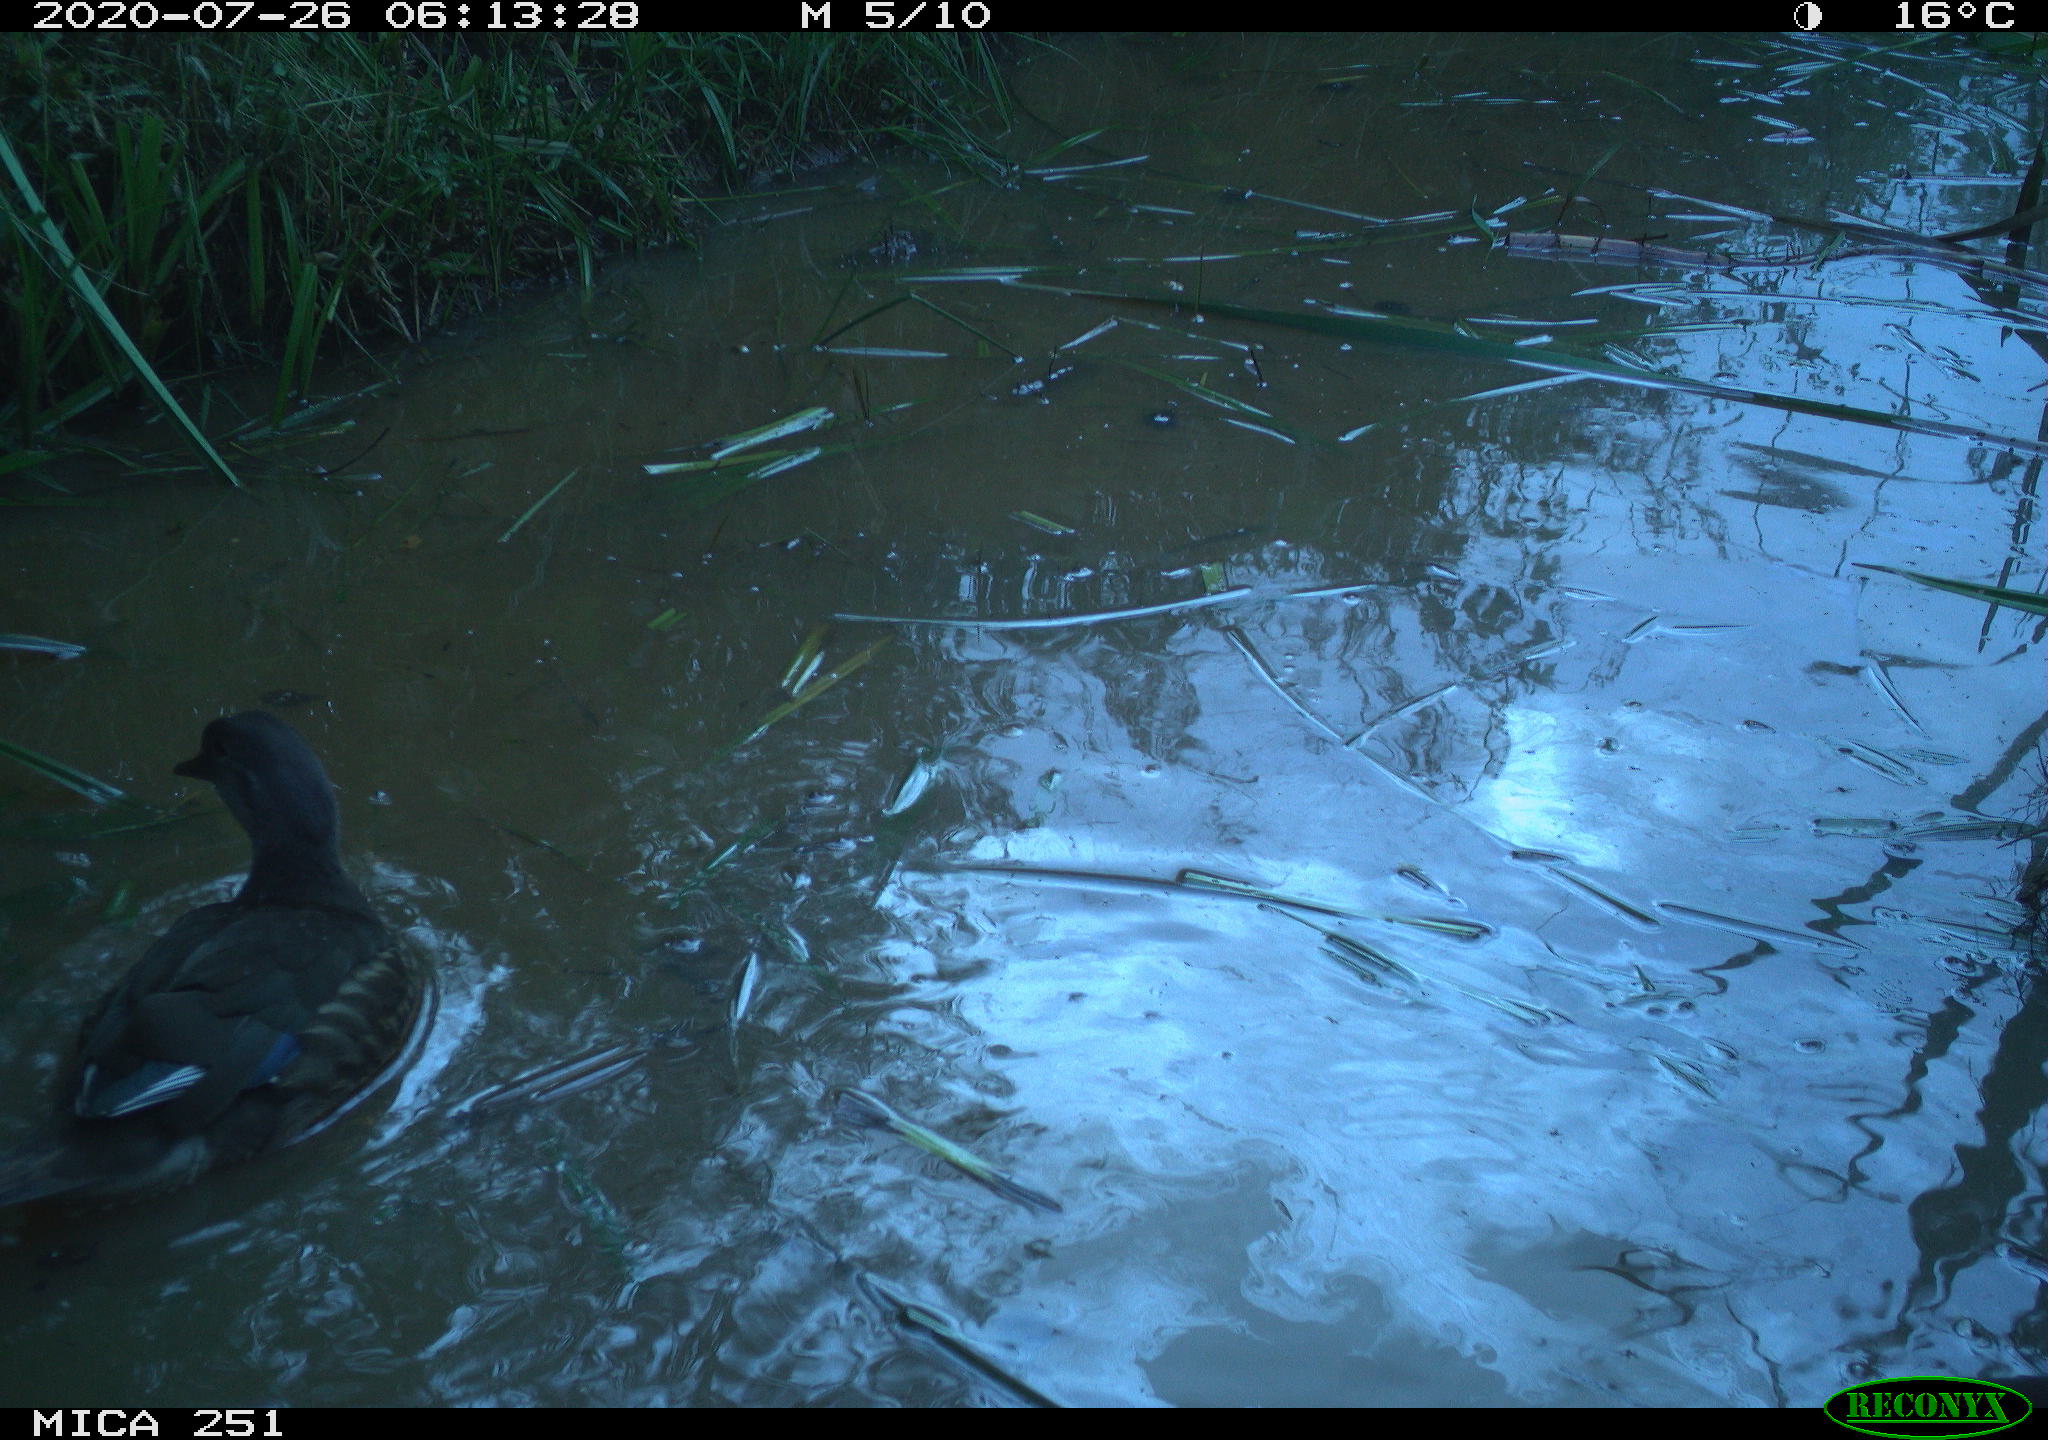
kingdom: Animalia
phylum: Chordata
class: Aves
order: Anseriformes
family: Anatidae
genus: Aix
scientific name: Aix galericulata
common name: Mandarin duck
